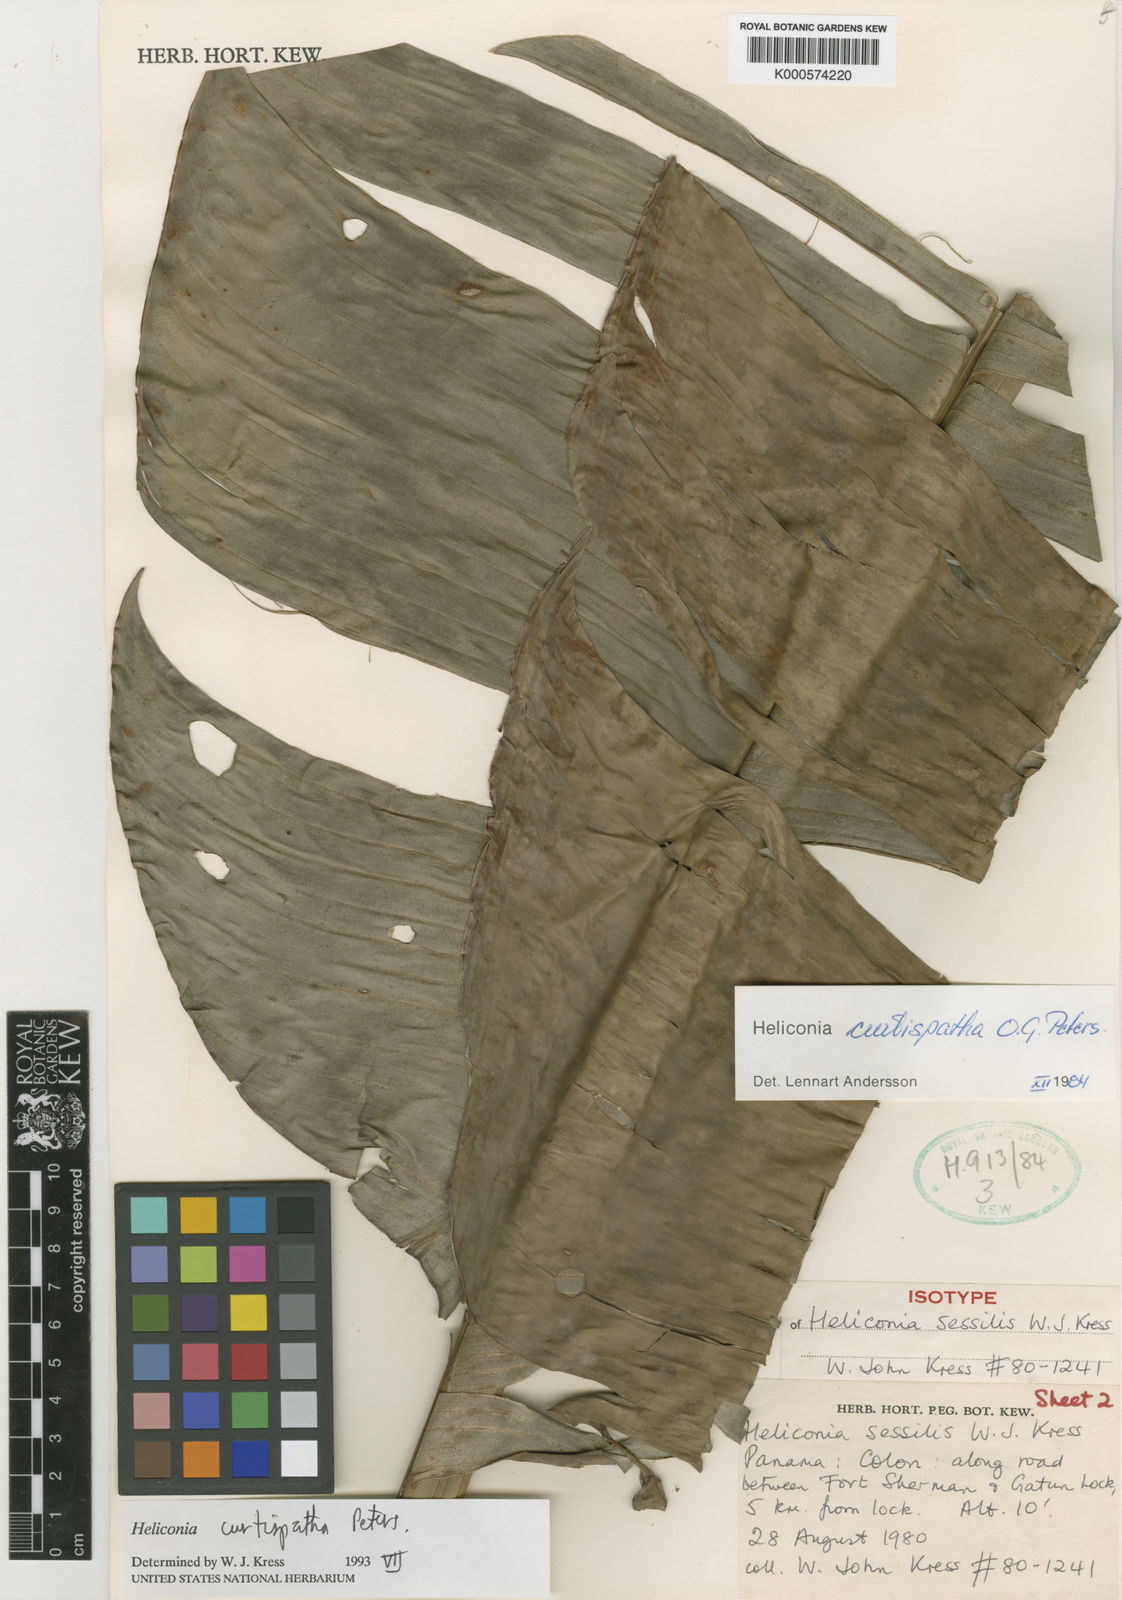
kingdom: Plantae
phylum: Tracheophyta
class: Liliopsida
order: Zingiberales
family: Heliconiaceae
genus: Heliconia
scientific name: Heliconia curtispatha
